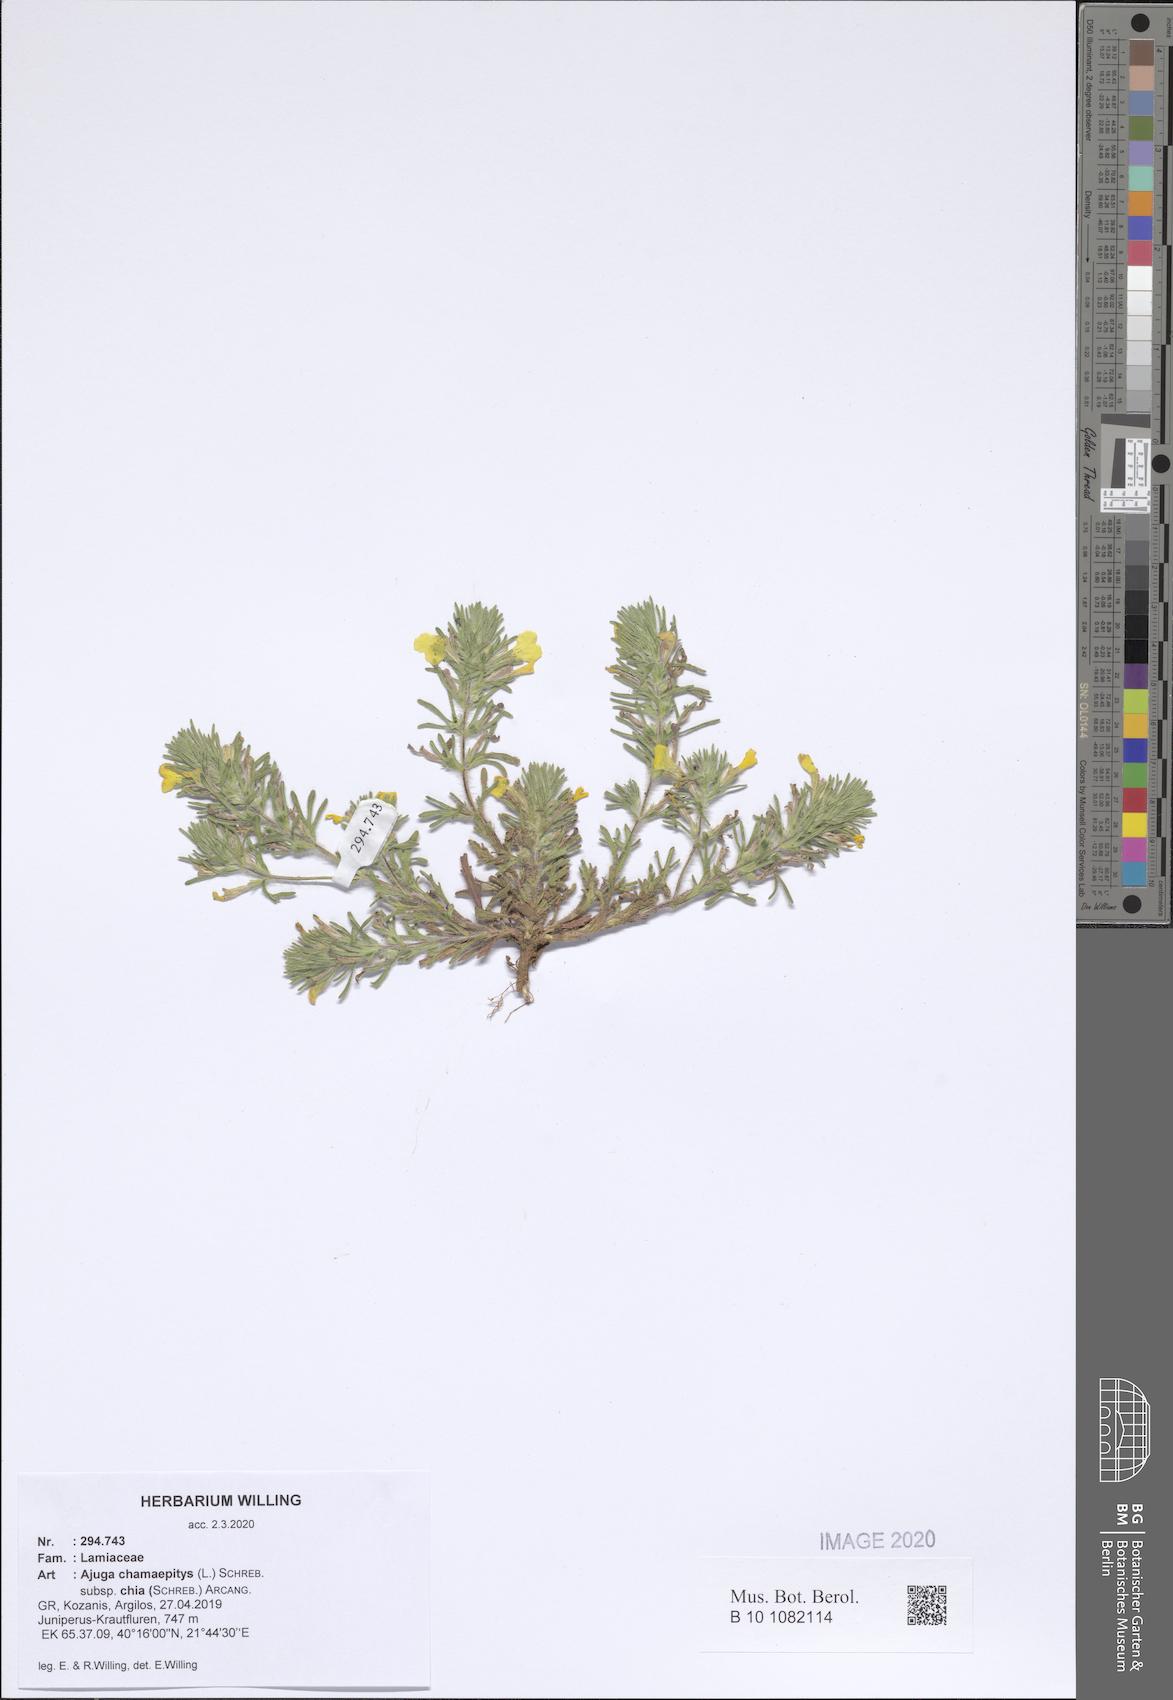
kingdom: Plantae
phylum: Tracheophyta
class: Magnoliopsida
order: Lamiales
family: Lamiaceae
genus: Ajuga
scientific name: Ajuga chamaepitys
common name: Ground-pine
